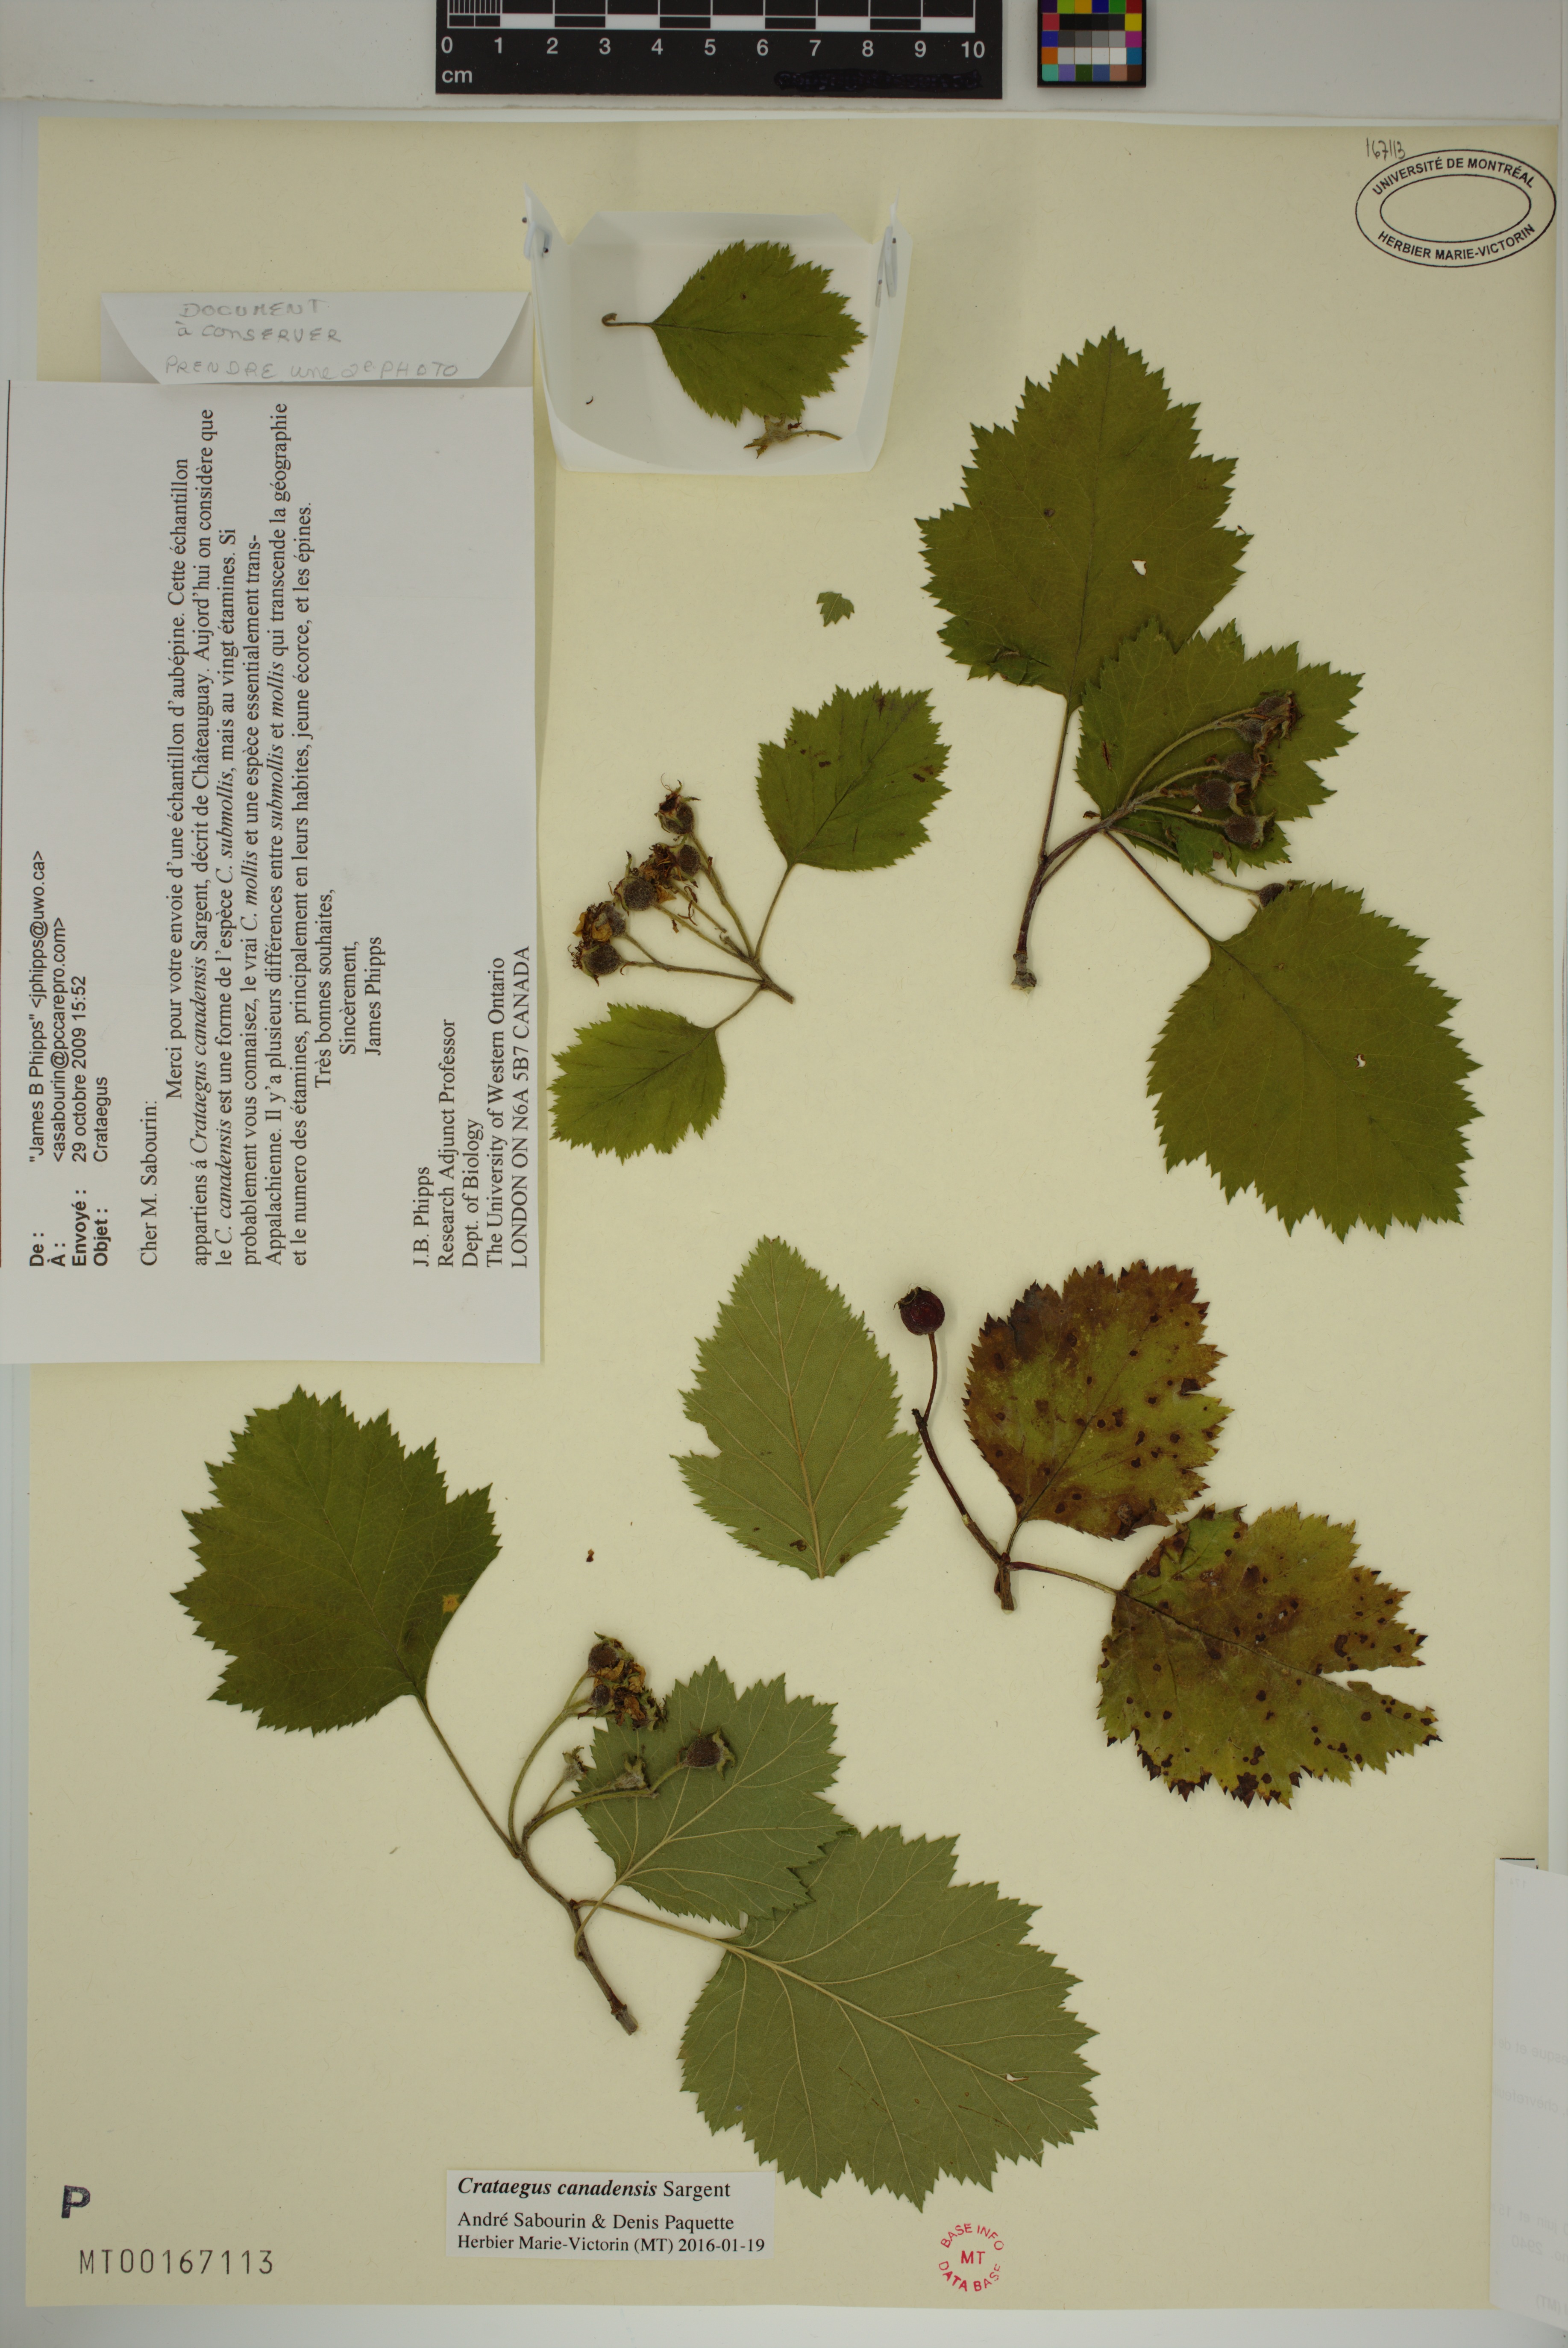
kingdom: Plantae
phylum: Tracheophyta
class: Magnoliopsida
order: Rosales
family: Rosaceae
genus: Crataegus
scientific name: Crataegus submollis
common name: Hairy cockspurthorn
